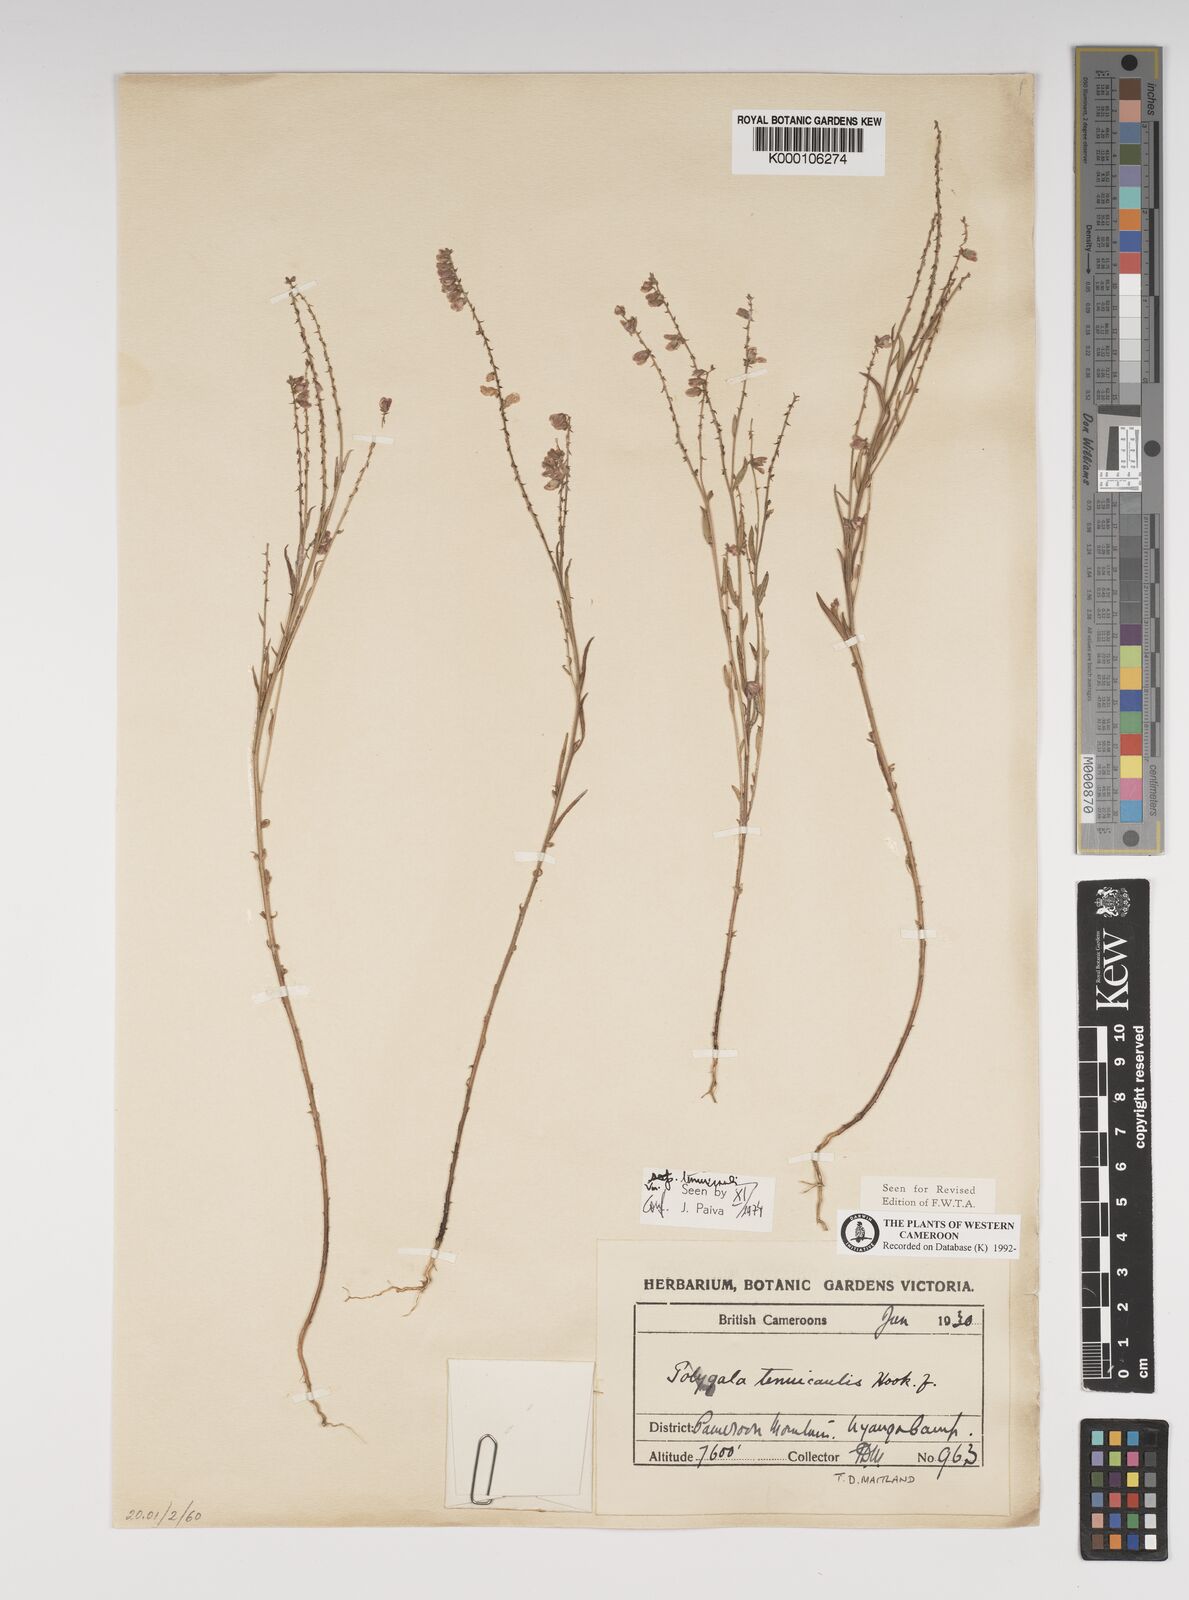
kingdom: Plantae
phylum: Tracheophyta
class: Magnoliopsida
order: Fabales
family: Polygalaceae
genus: Polygala
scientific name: Polygala tenuicaulis
